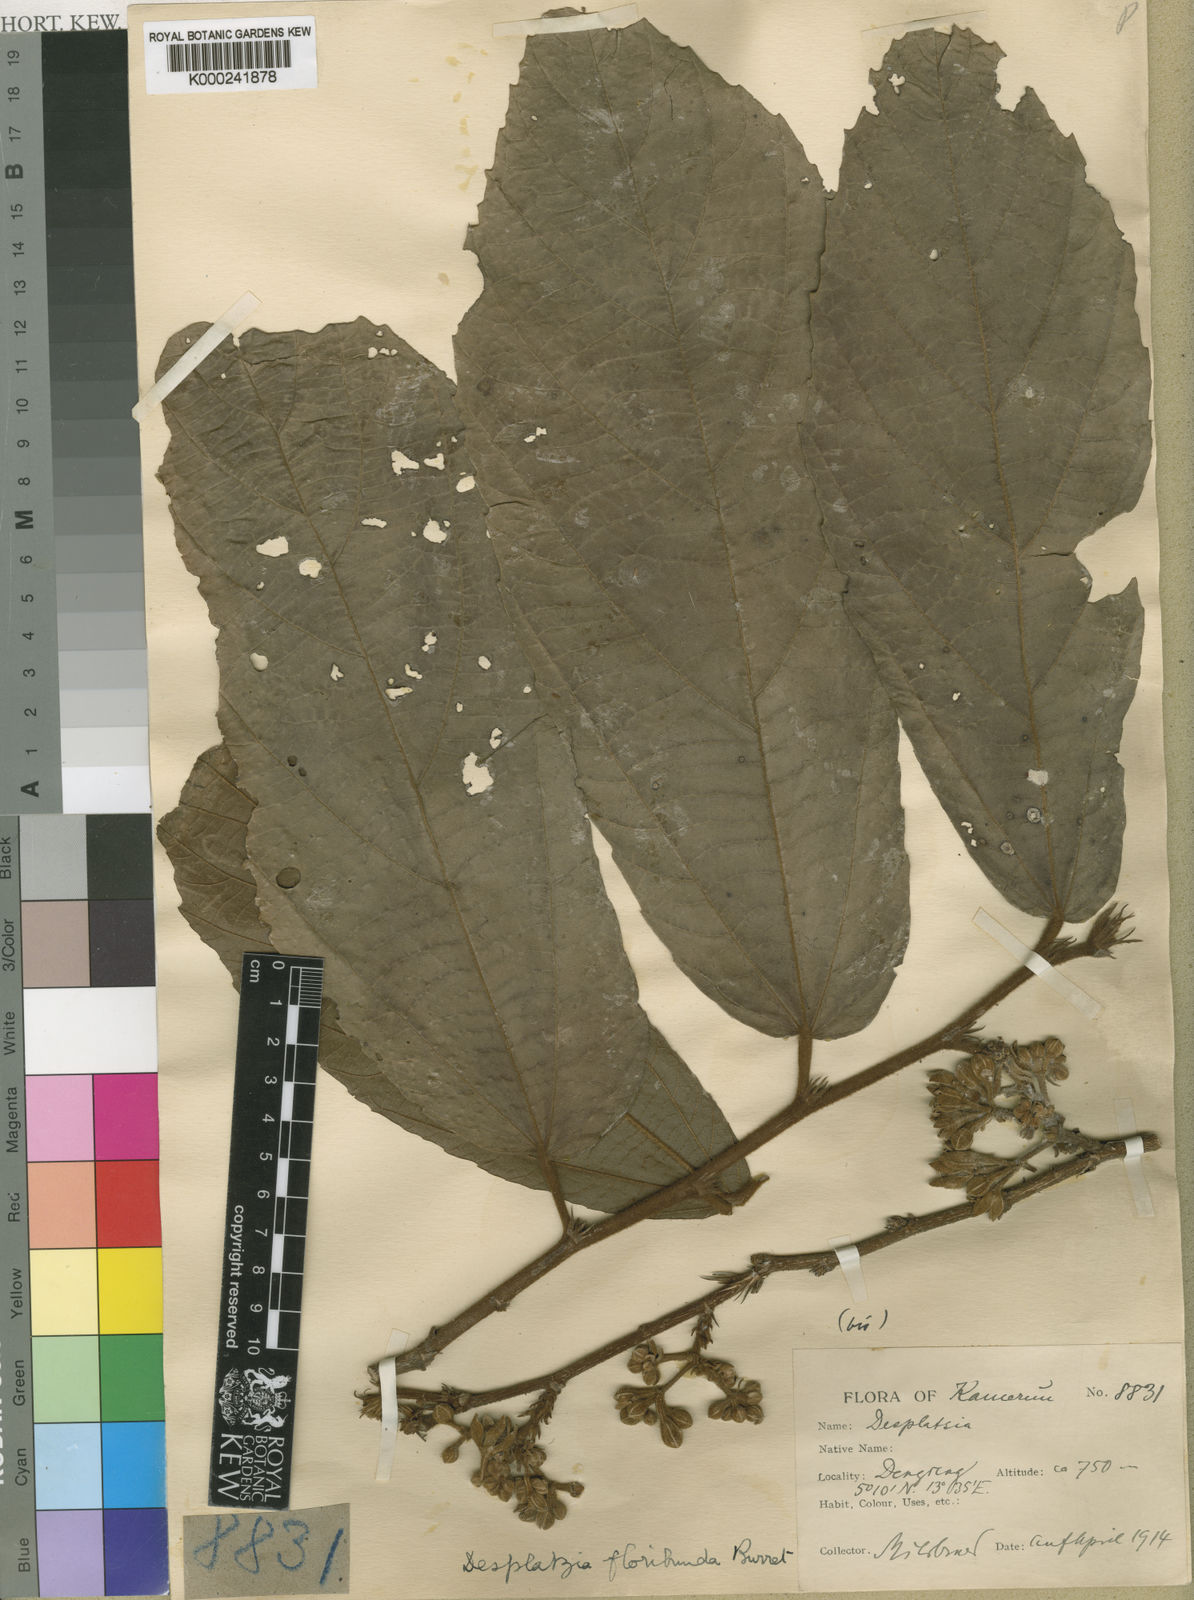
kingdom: Plantae
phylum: Tracheophyta
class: Magnoliopsida
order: Malvales
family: Malvaceae
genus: Desplatsia
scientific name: Desplatsia chrysochlamys
